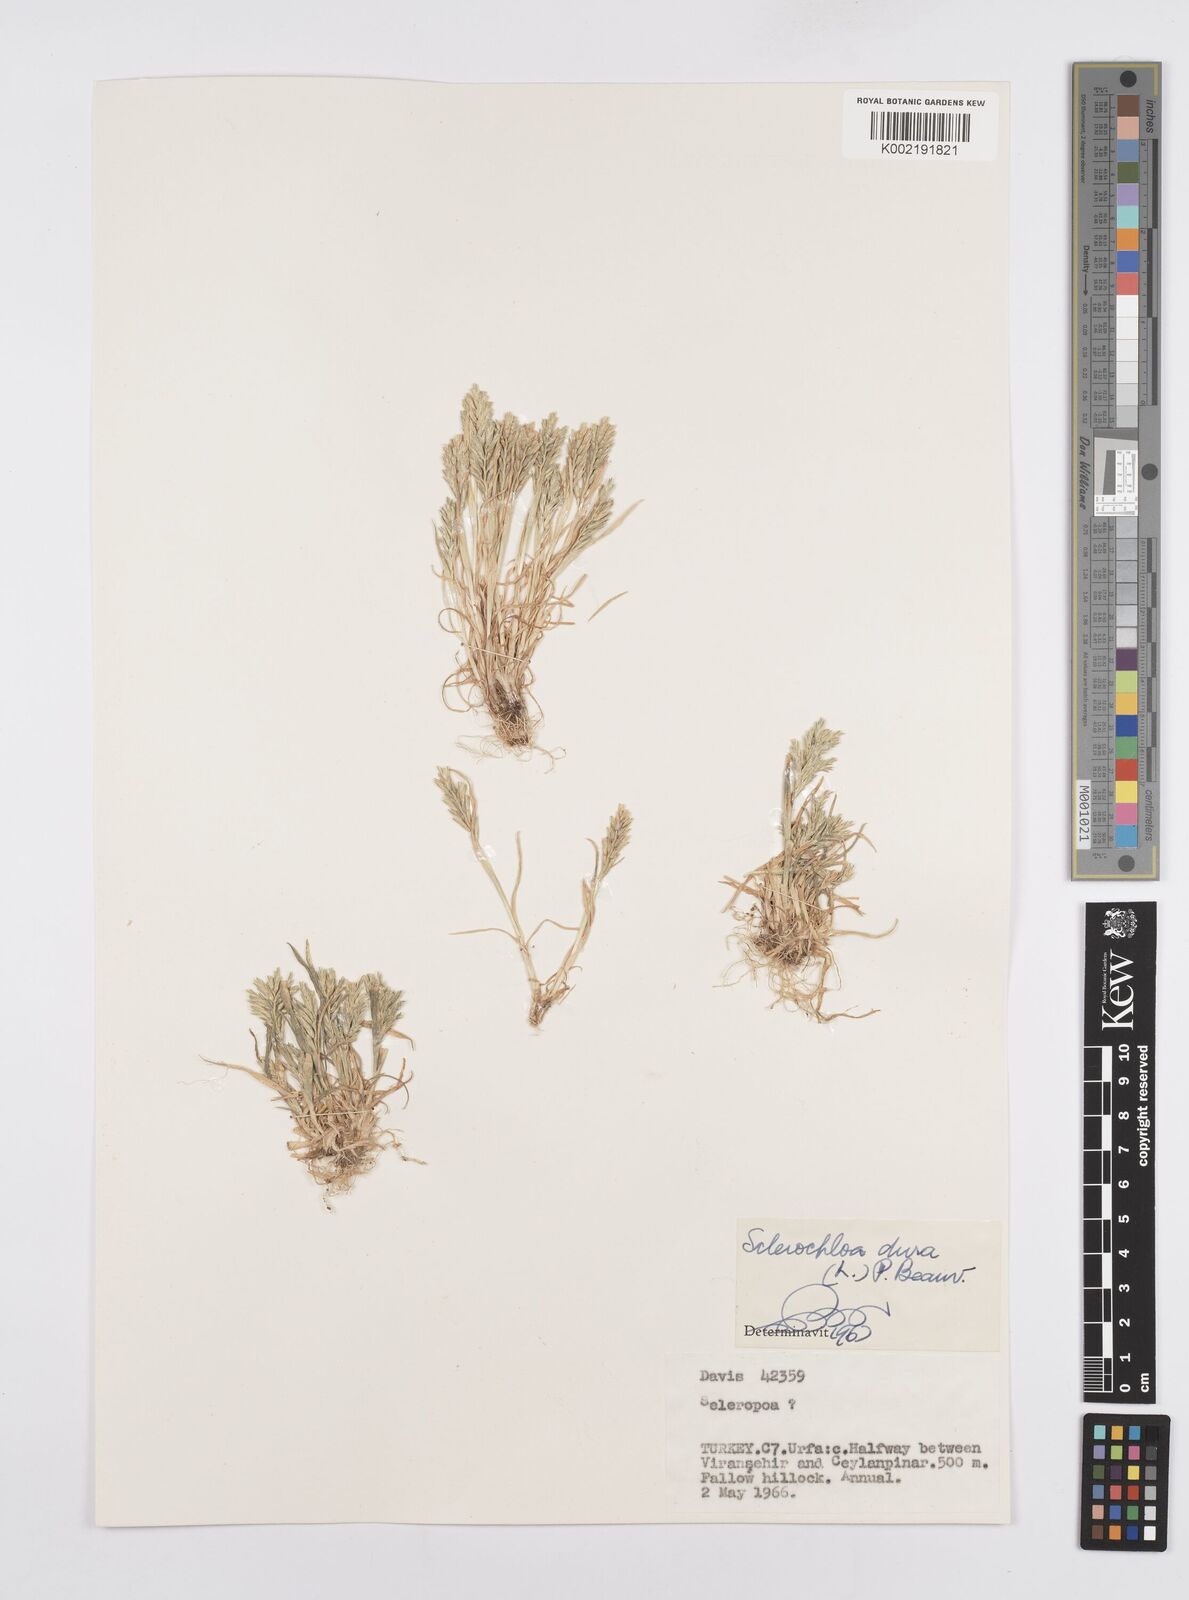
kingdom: Plantae
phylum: Tracheophyta
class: Liliopsida
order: Poales
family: Poaceae
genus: Sclerochloa
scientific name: Sclerochloa dura
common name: Common hardgrass
